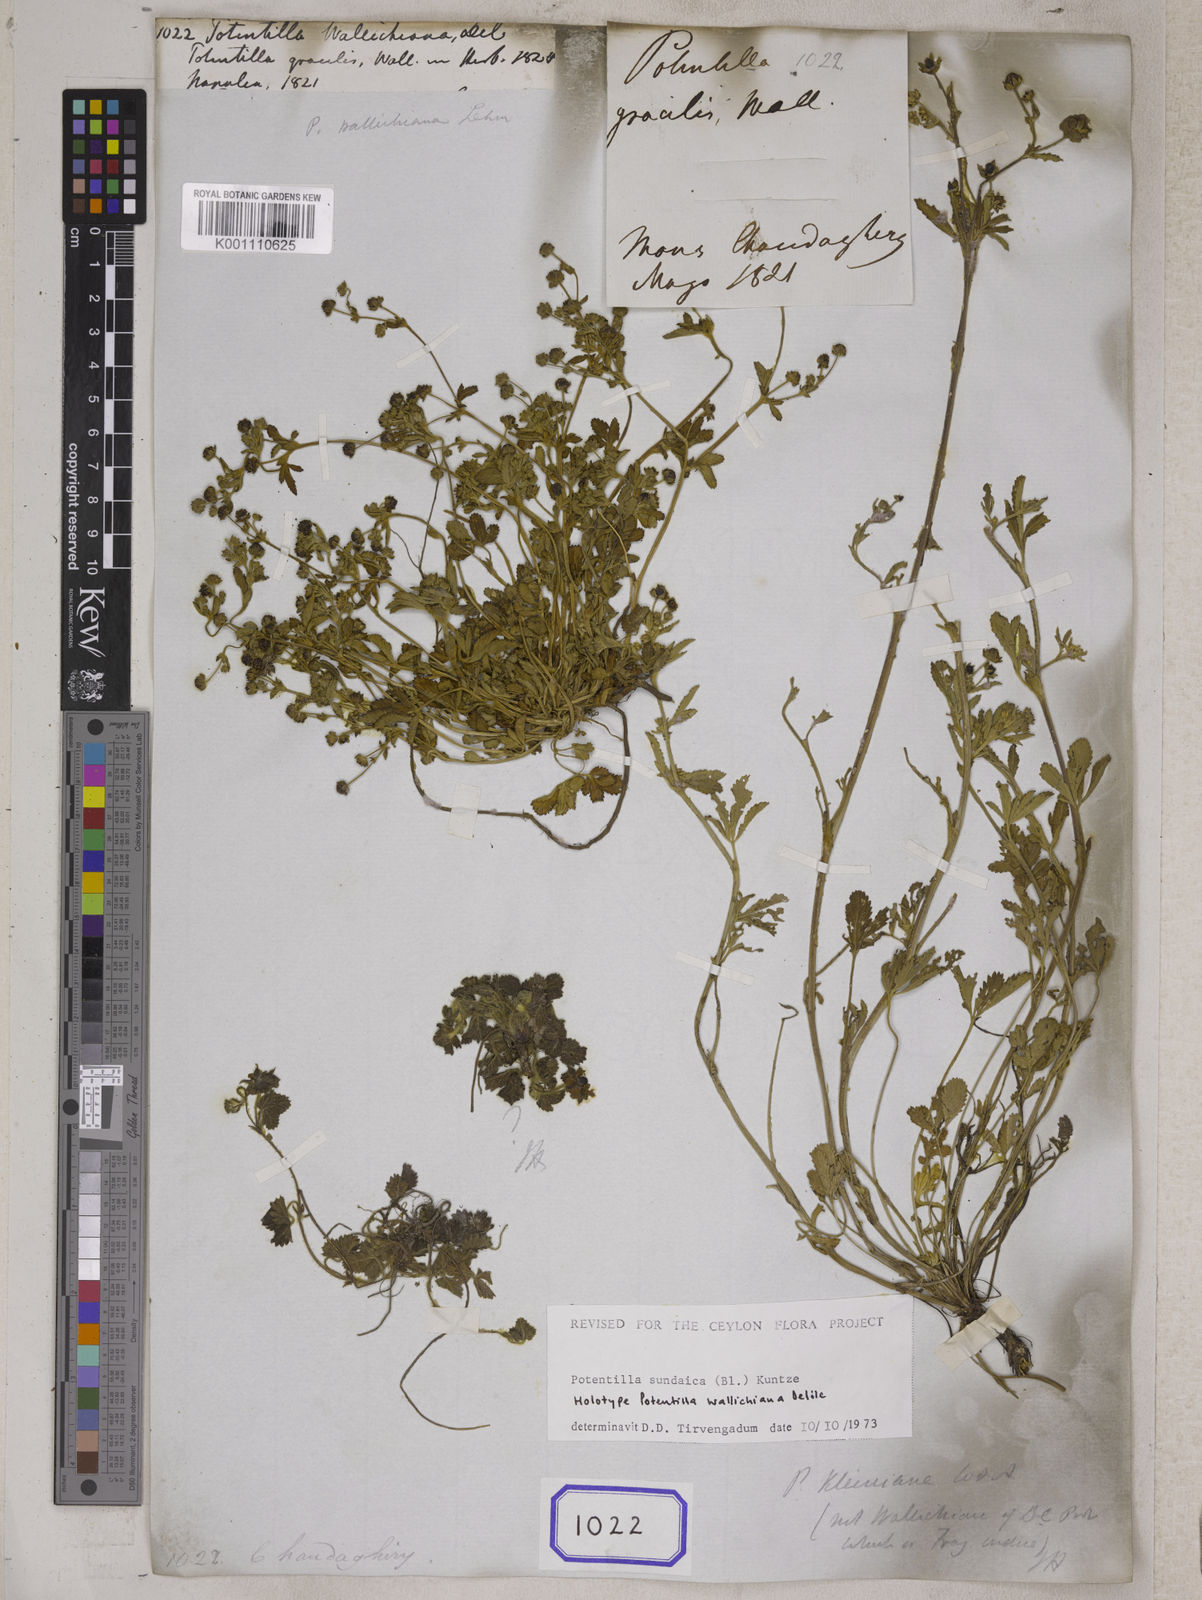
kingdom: Plantae
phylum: Tracheophyta
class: Magnoliopsida
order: Rosales
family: Rosaceae
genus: Potentilla
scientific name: Potentilla
